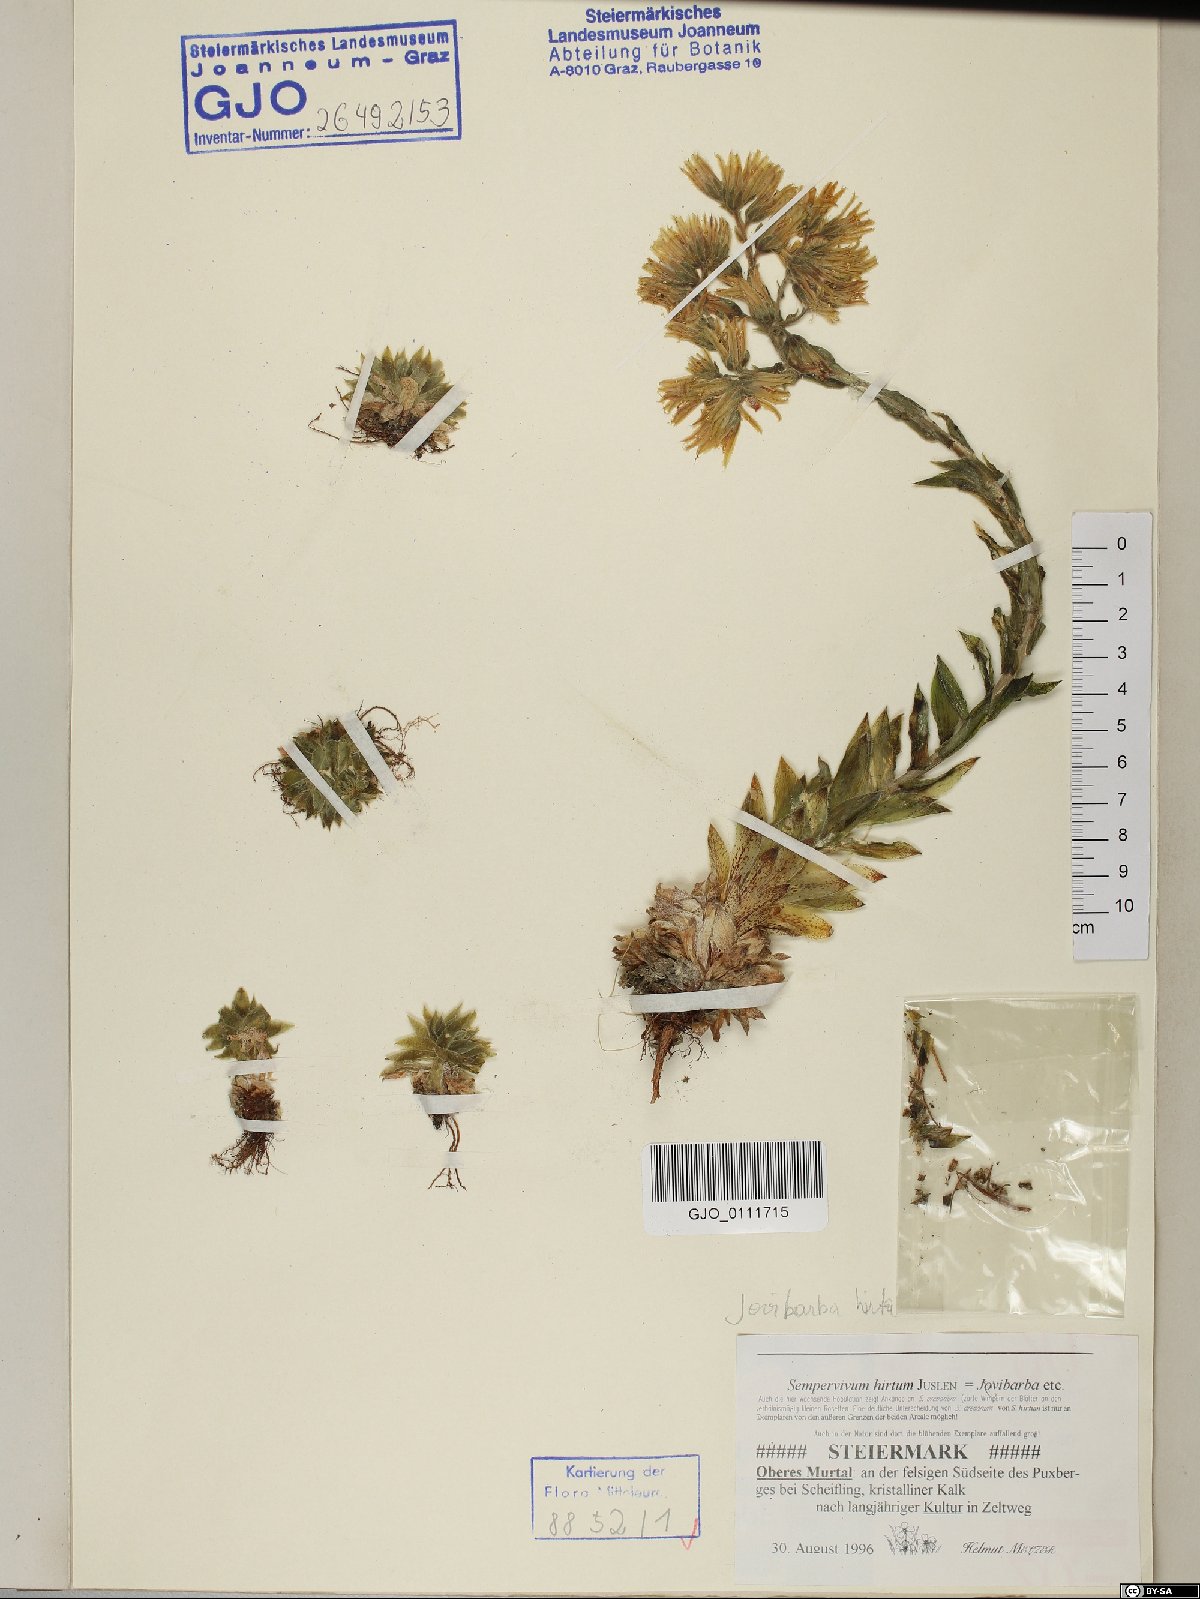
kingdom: Plantae
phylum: Tracheophyta
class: Magnoliopsida
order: Saxifragales
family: Crassulaceae
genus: Sempervivum
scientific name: Sempervivum globiferum
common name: Rolling hen-and-chicks
